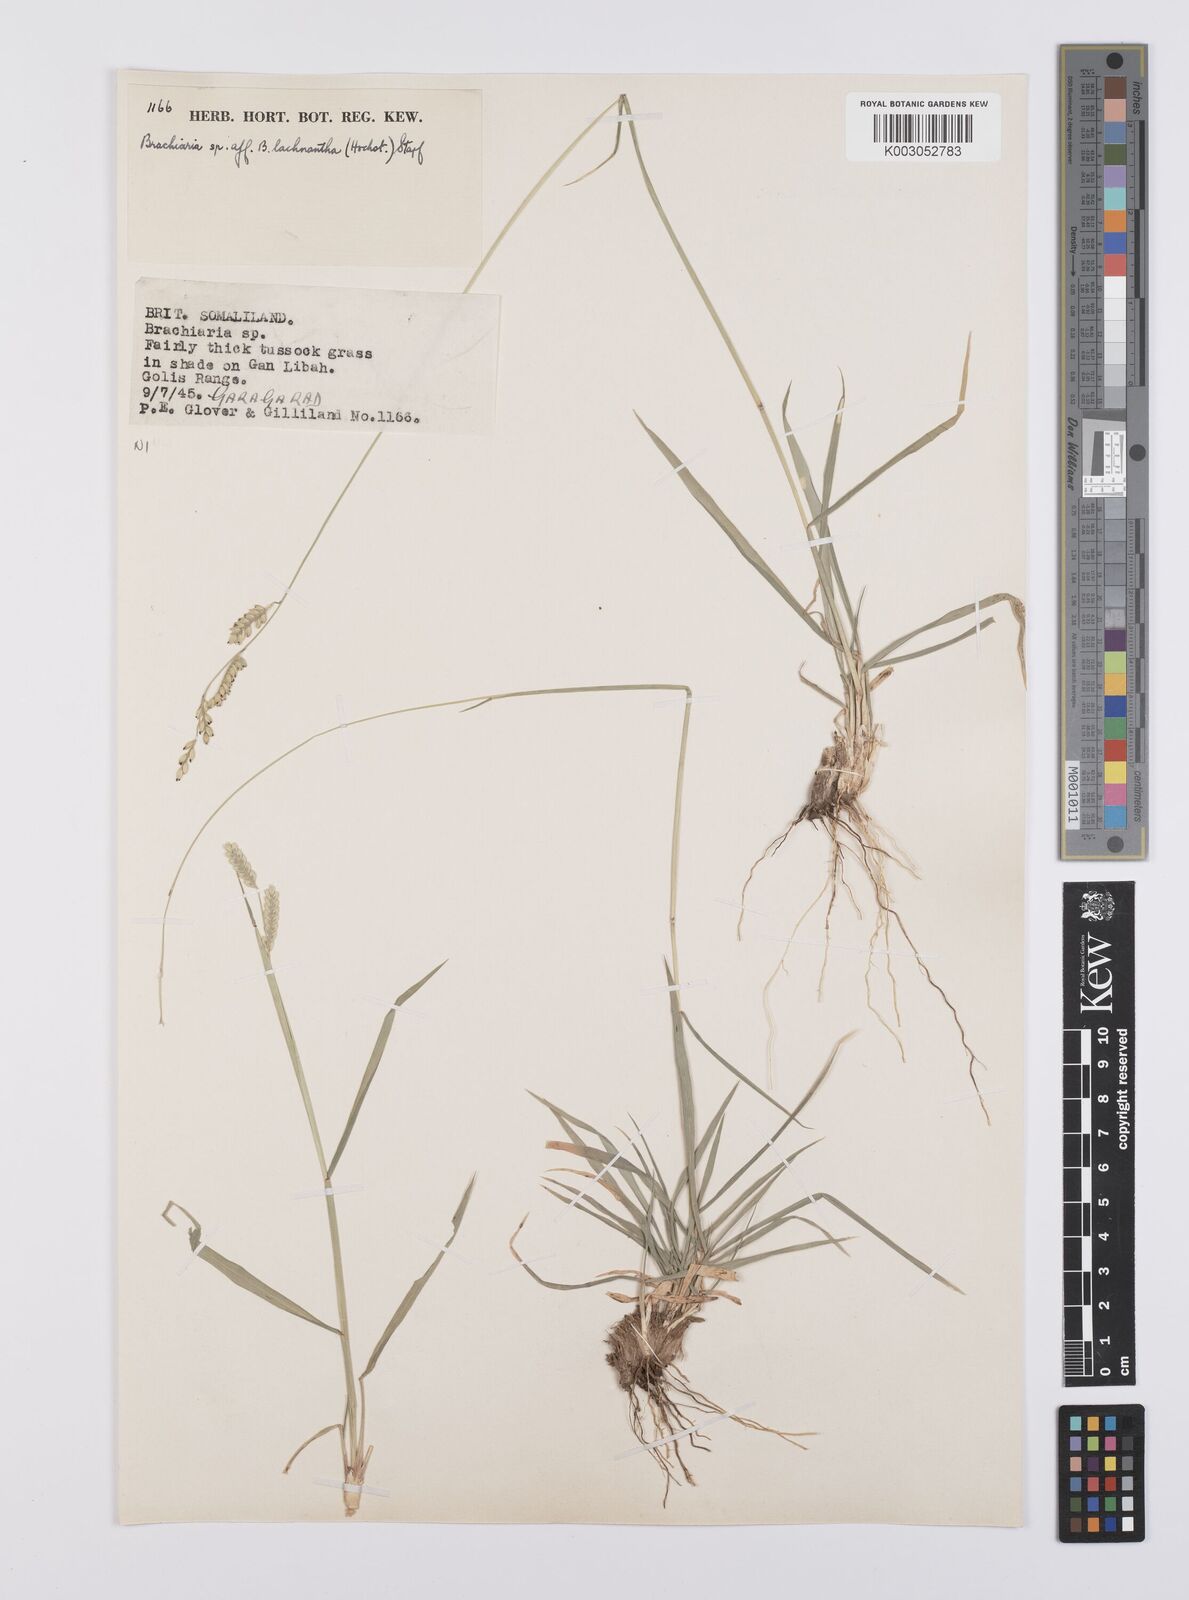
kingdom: Plantae
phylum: Tracheophyta
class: Liliopsida
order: Poales
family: Poaceae
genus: Urochloa
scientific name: Urochloa lachnantha
